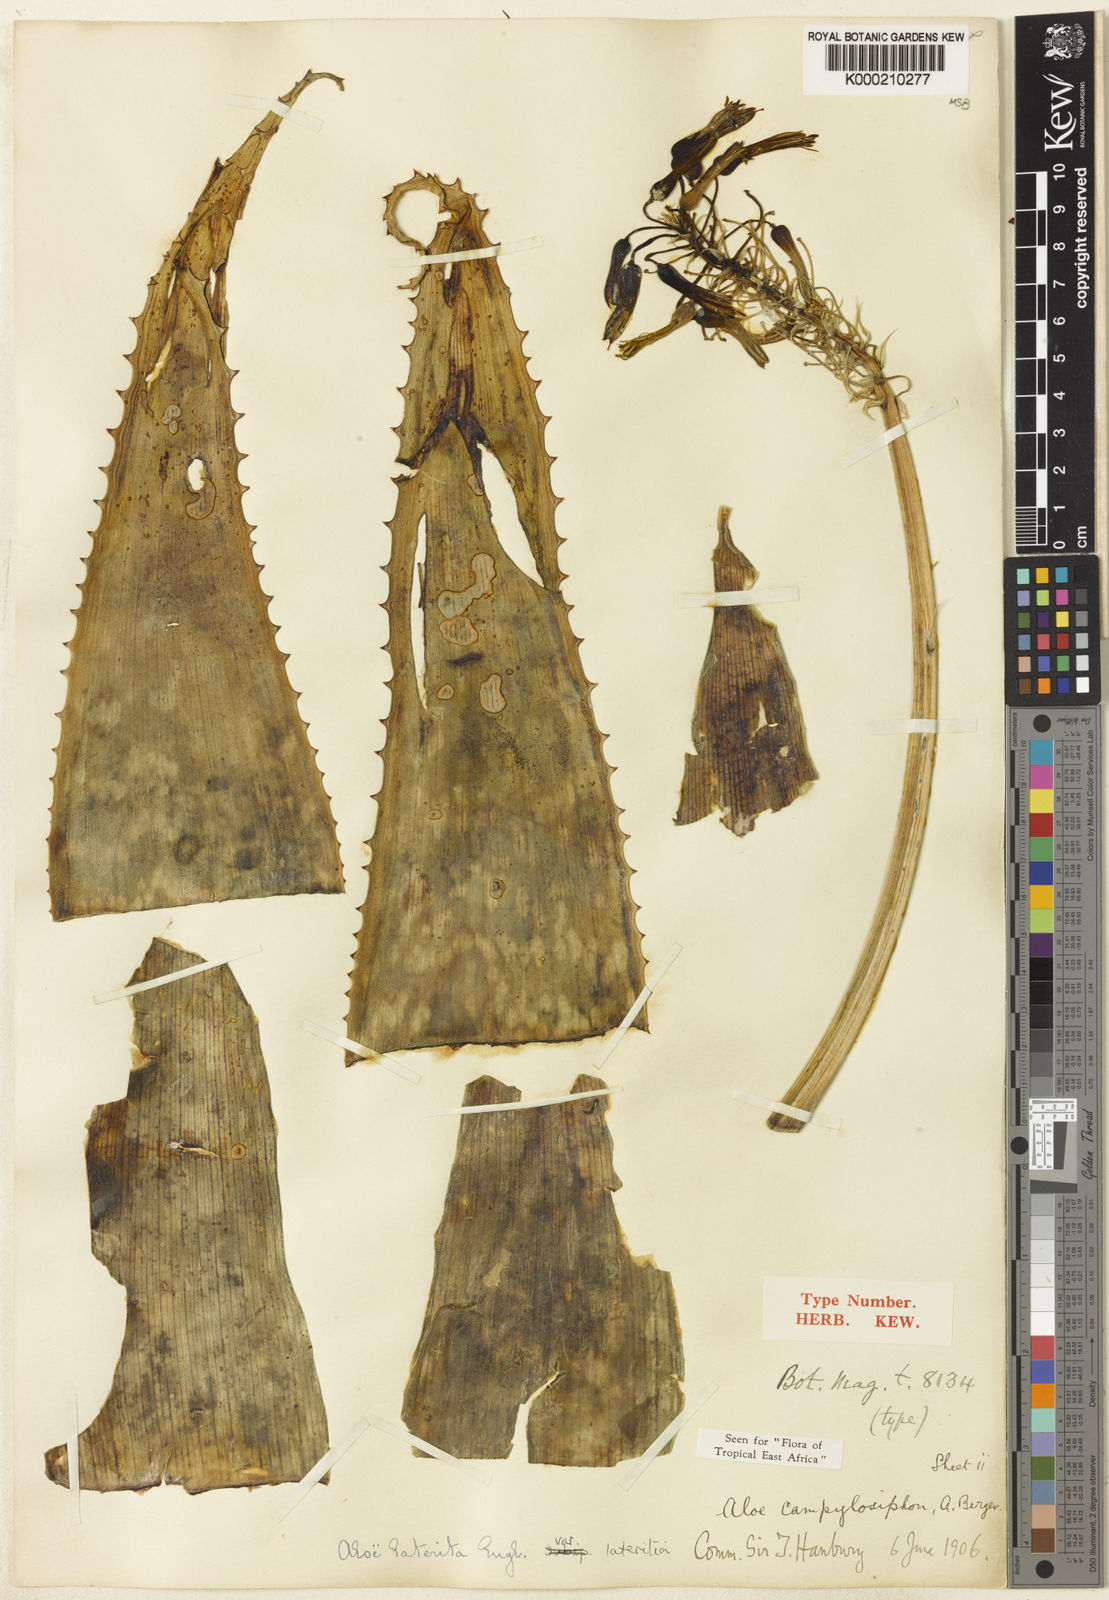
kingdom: Plantae
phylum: Tracheophyta
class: Liliopsida
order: Asparagales
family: Asphodelaceae
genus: Aloe
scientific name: Aloe lateritia
